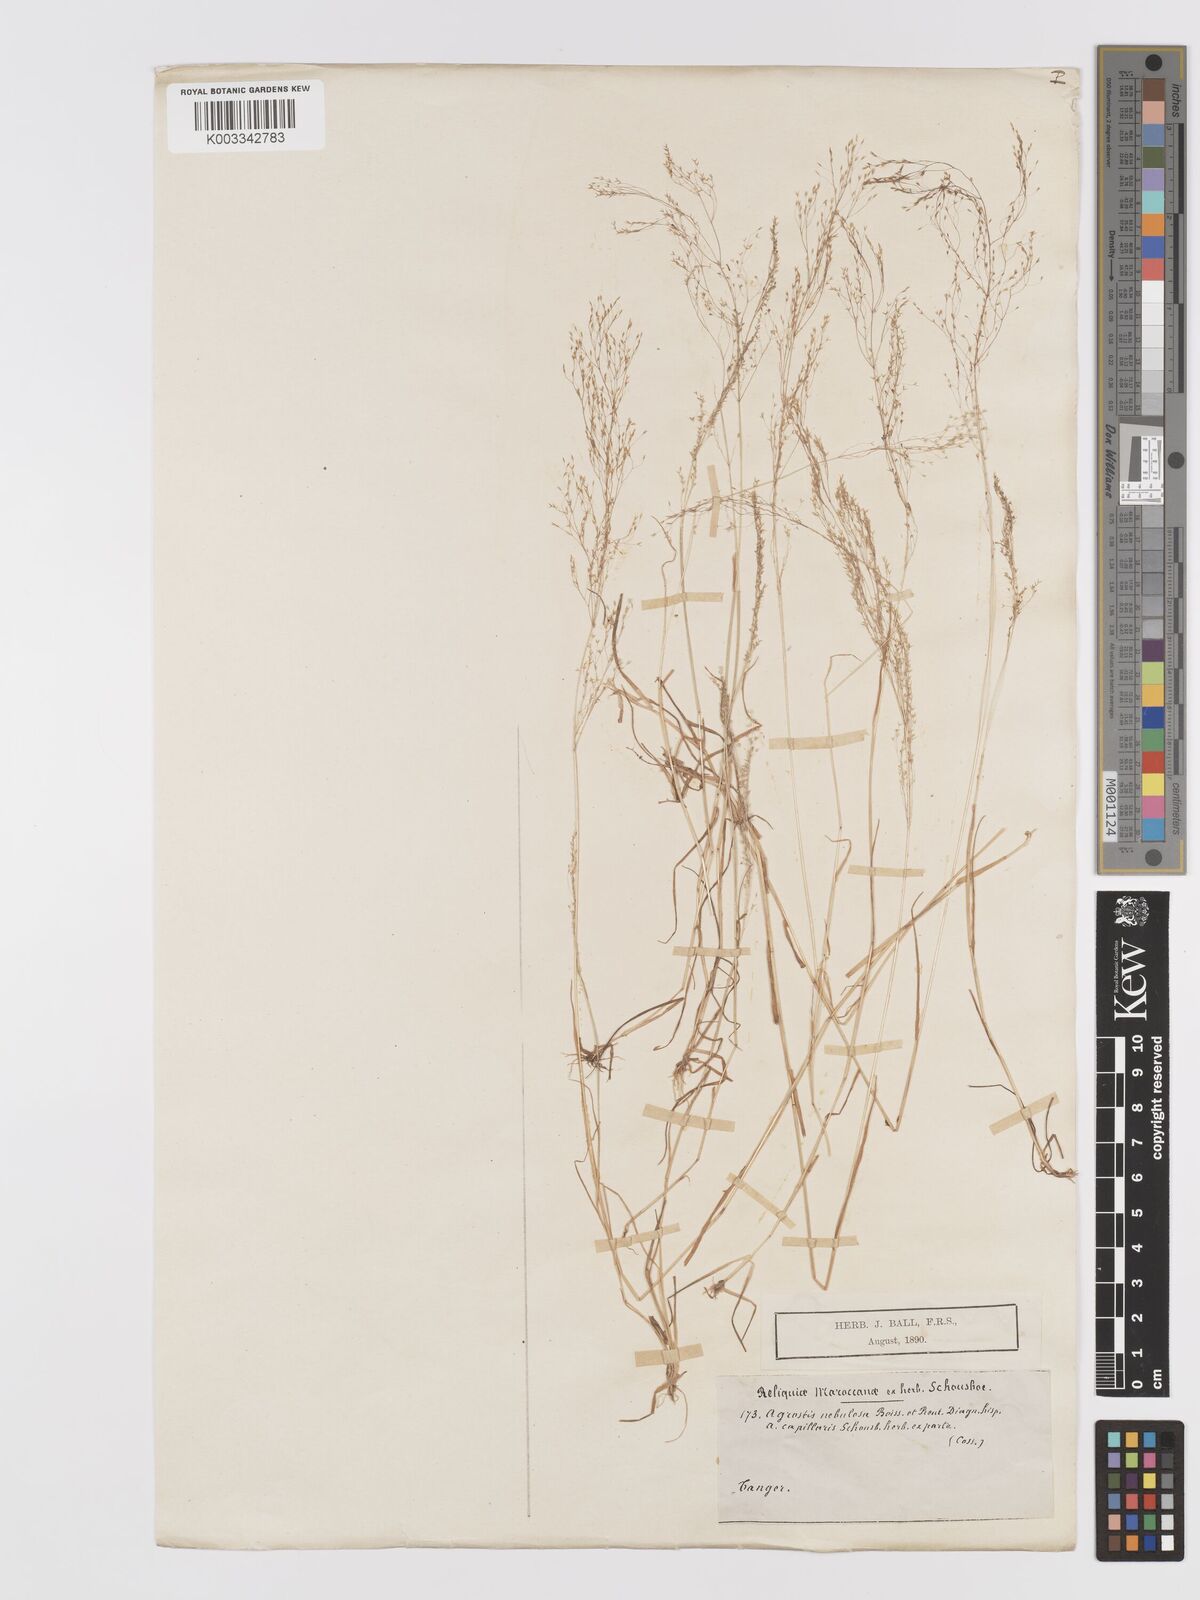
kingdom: Plantae
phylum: Tracheophyta
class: Liliopsida
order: Poales
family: Poaceae
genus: Agrostis
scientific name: Agrostis nebulosa
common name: Cloud grass
